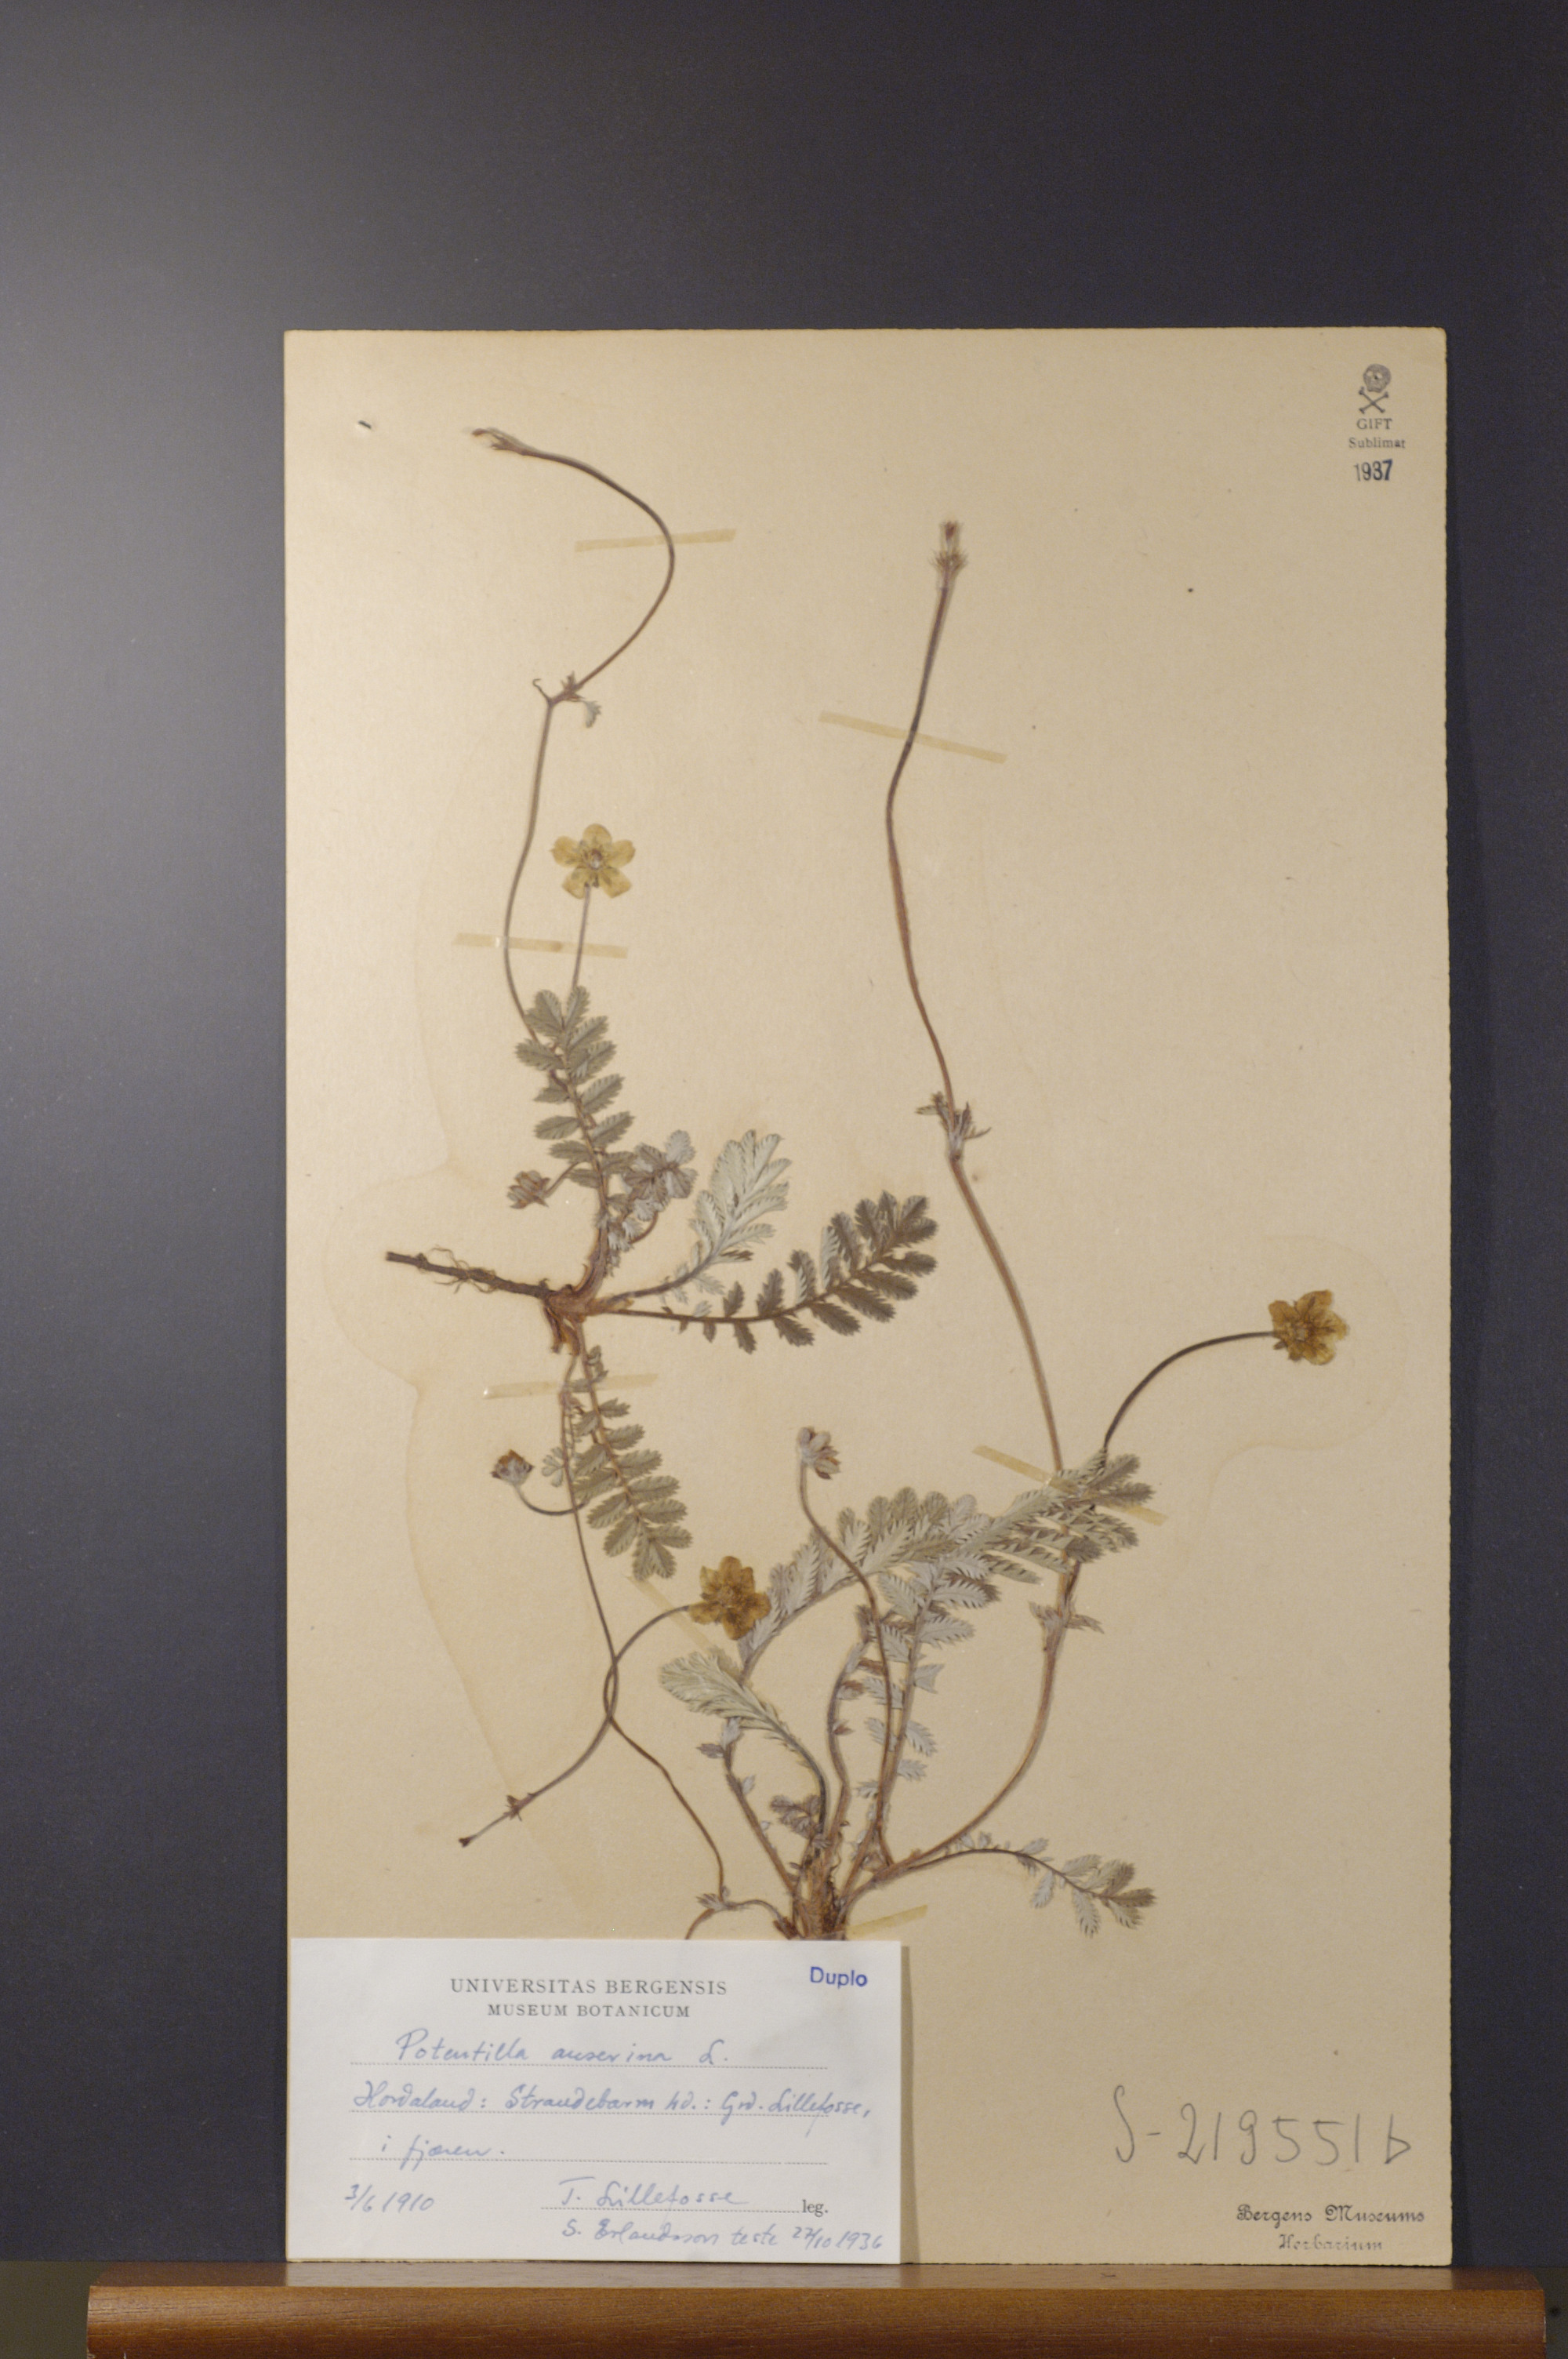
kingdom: Plantae
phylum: Tracheophyta
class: Magnoliopsida
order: Rosales
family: Rosaceae
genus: Argentina
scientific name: Argentina anserina
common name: Common silverweed
